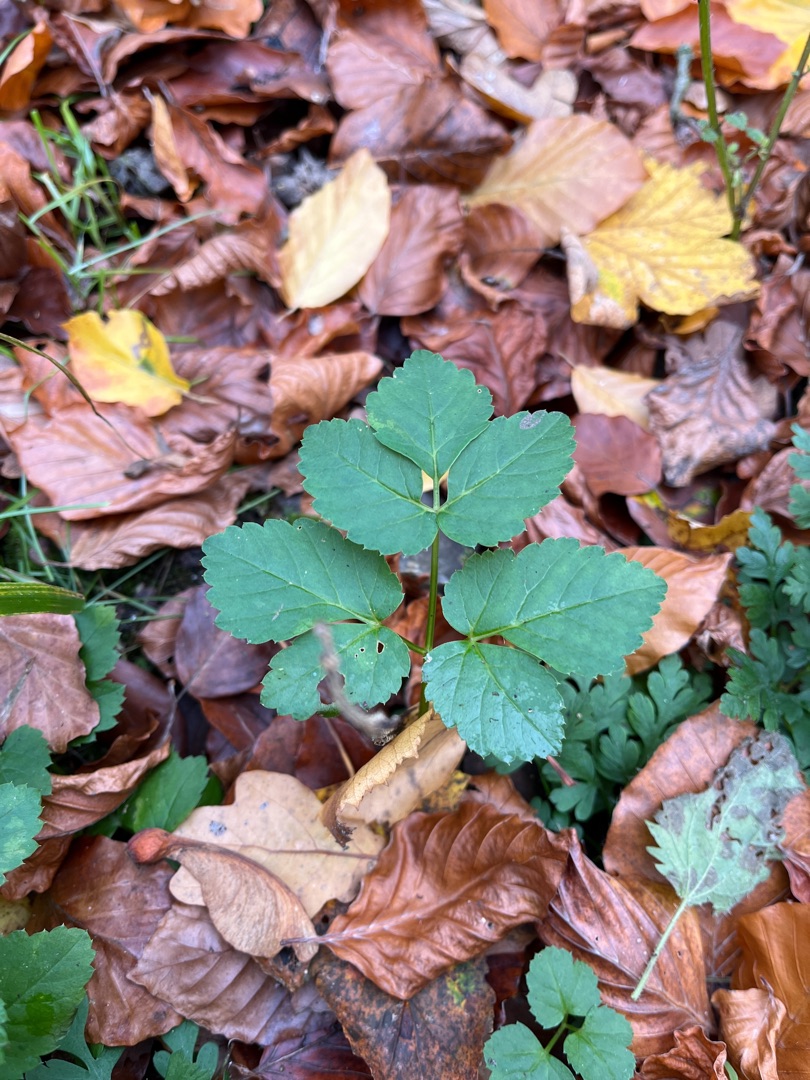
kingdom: Plantae
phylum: Tracheophyta
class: Magnoliopsida
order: Apiales
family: Apiaceae
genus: Aegopodium
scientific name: Aegopodium podagraria
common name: Skvalderkål
